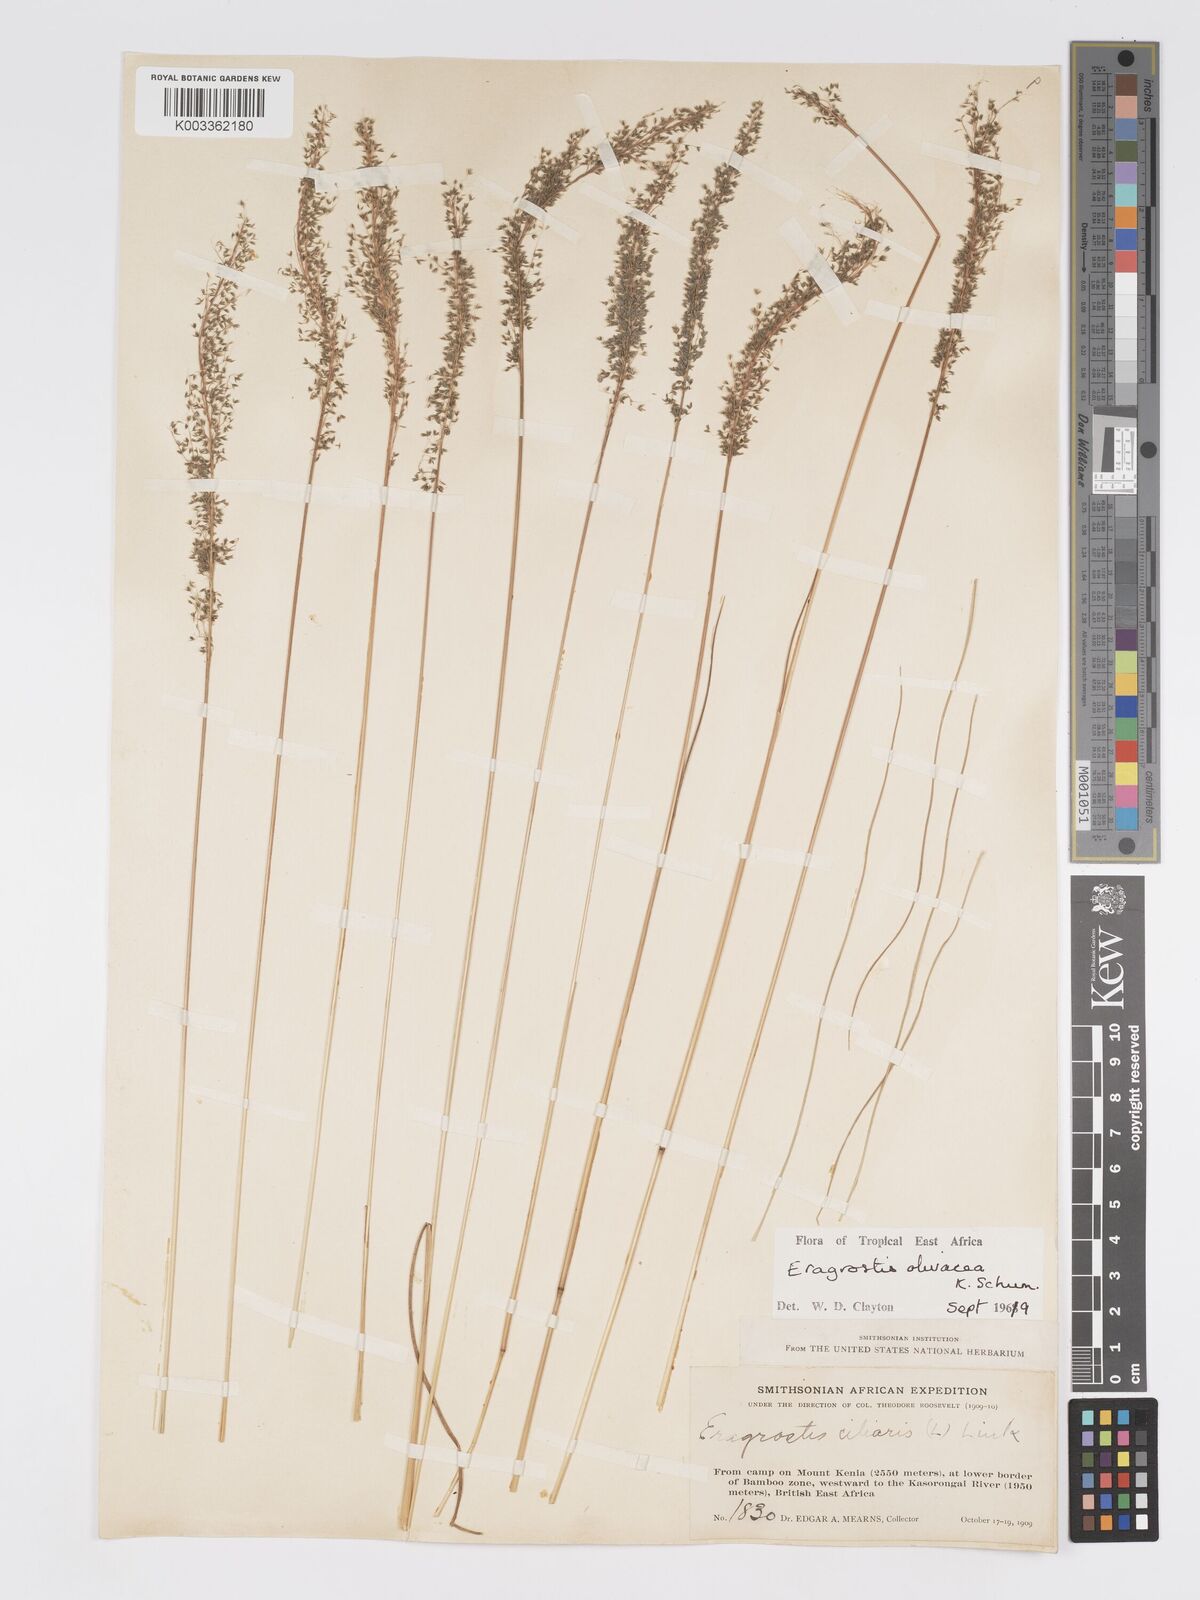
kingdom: Plantae
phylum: Tracheophyta
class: Liliopsida
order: Poales
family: Poaceae
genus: Eragrostis
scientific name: Eragrostis olivacea
